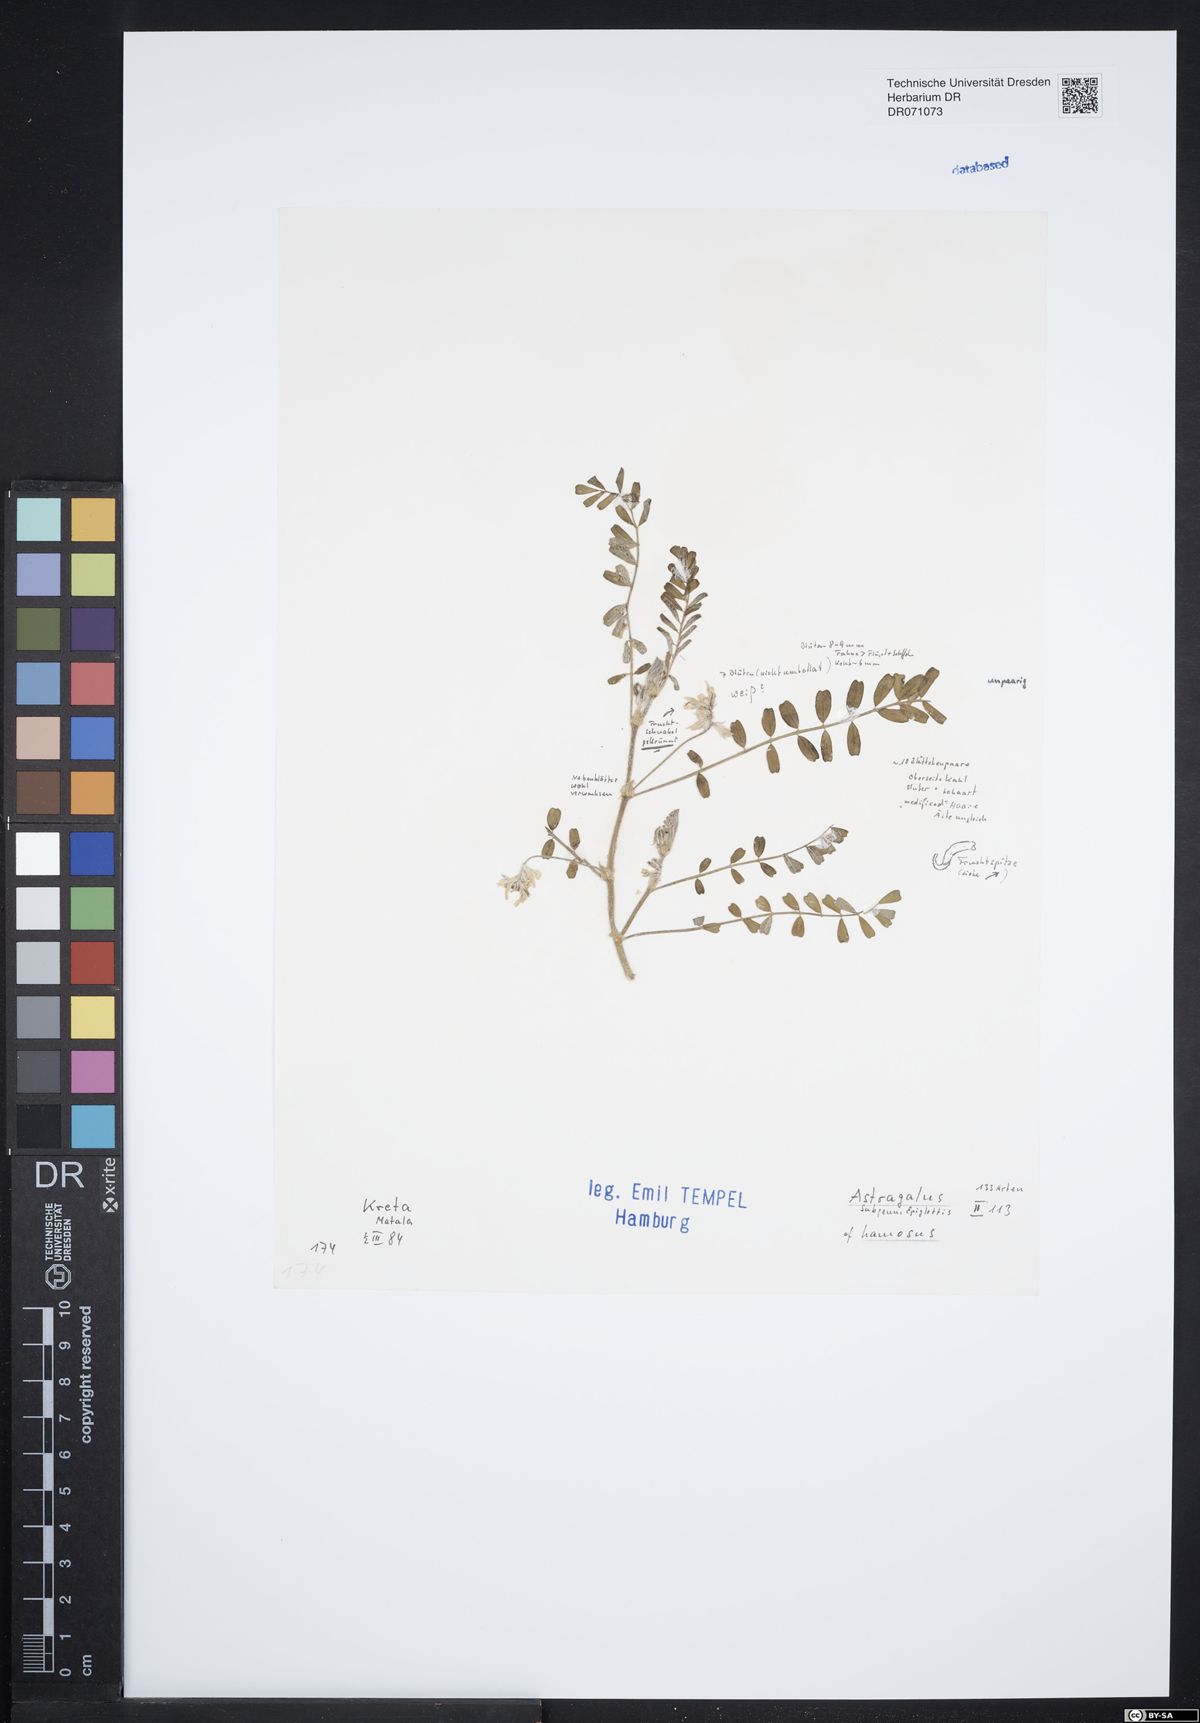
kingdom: Plantae
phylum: Tracheophyta
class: Magnoliopsida
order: Fabales
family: Fabaceae
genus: Astragalus
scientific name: Astragalus hamosus
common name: European milkvetch
